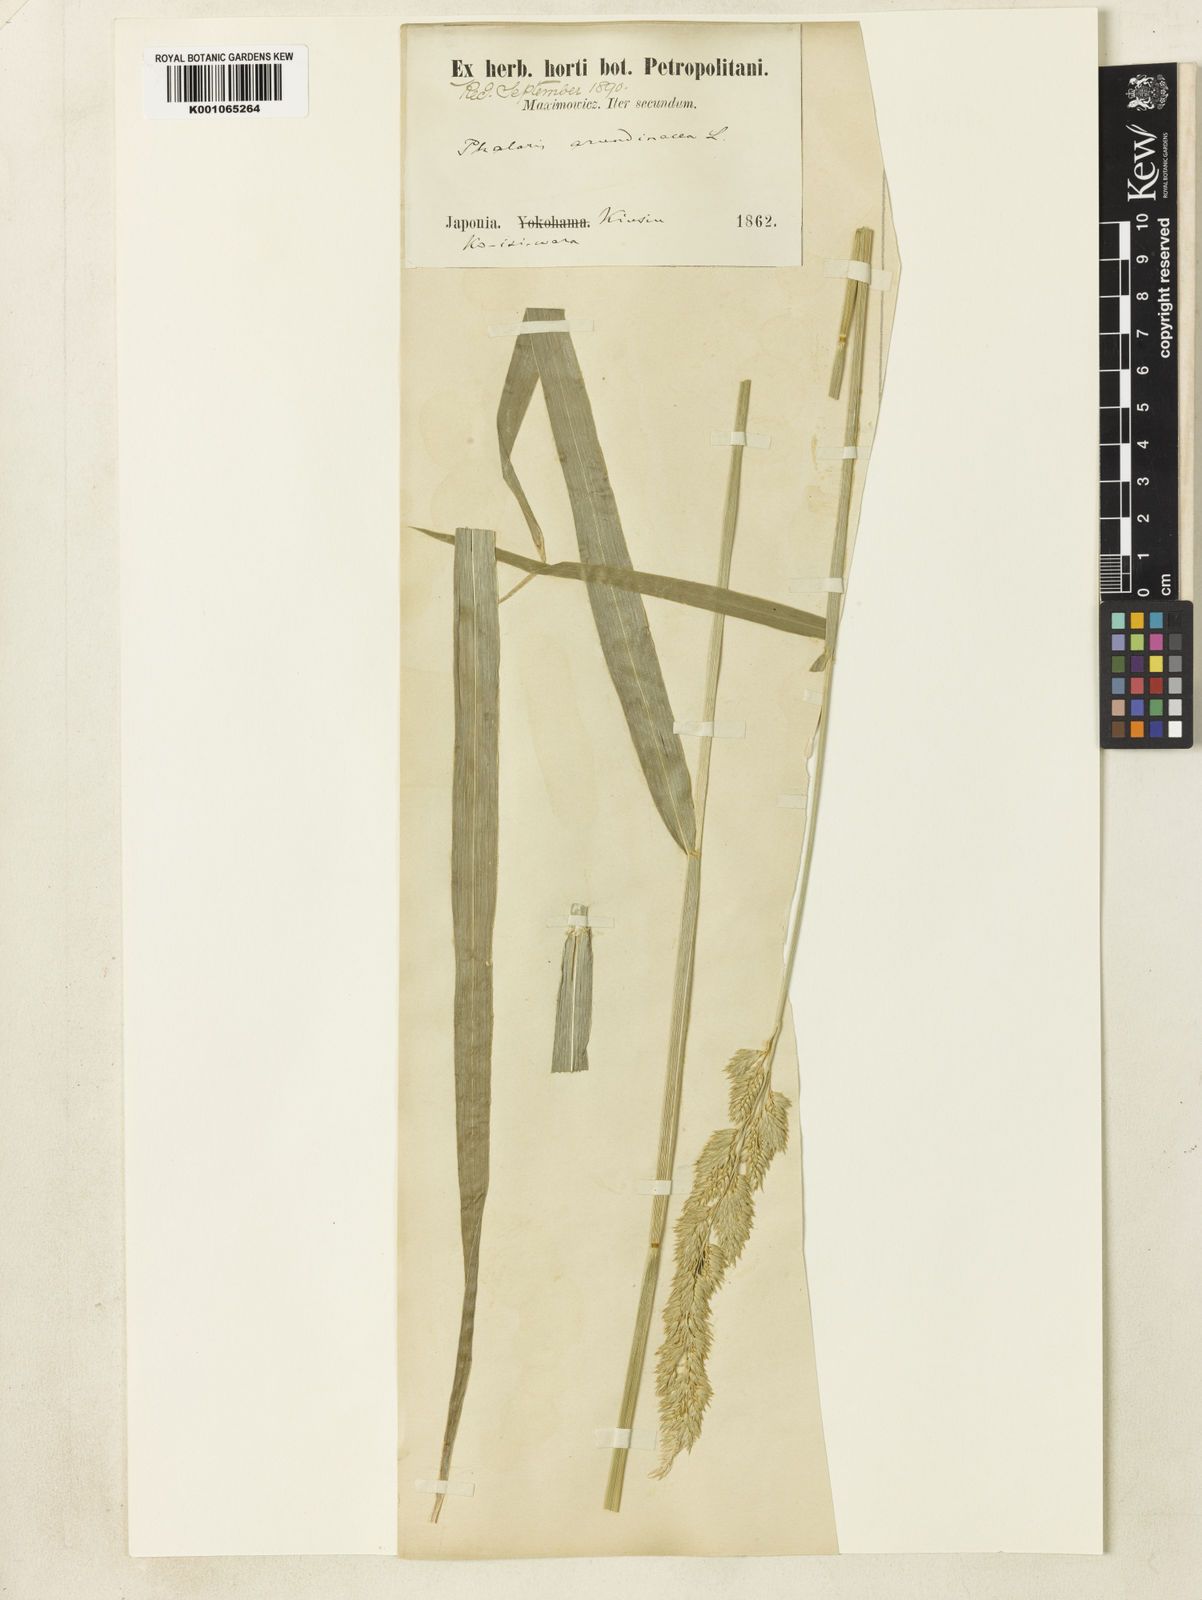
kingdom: Plantae
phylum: Tracheophyta
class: Liliopsida
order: Poales
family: Poaceae
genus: Phalaris
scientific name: Phalaris arundinacea
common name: Reed canary-grass
